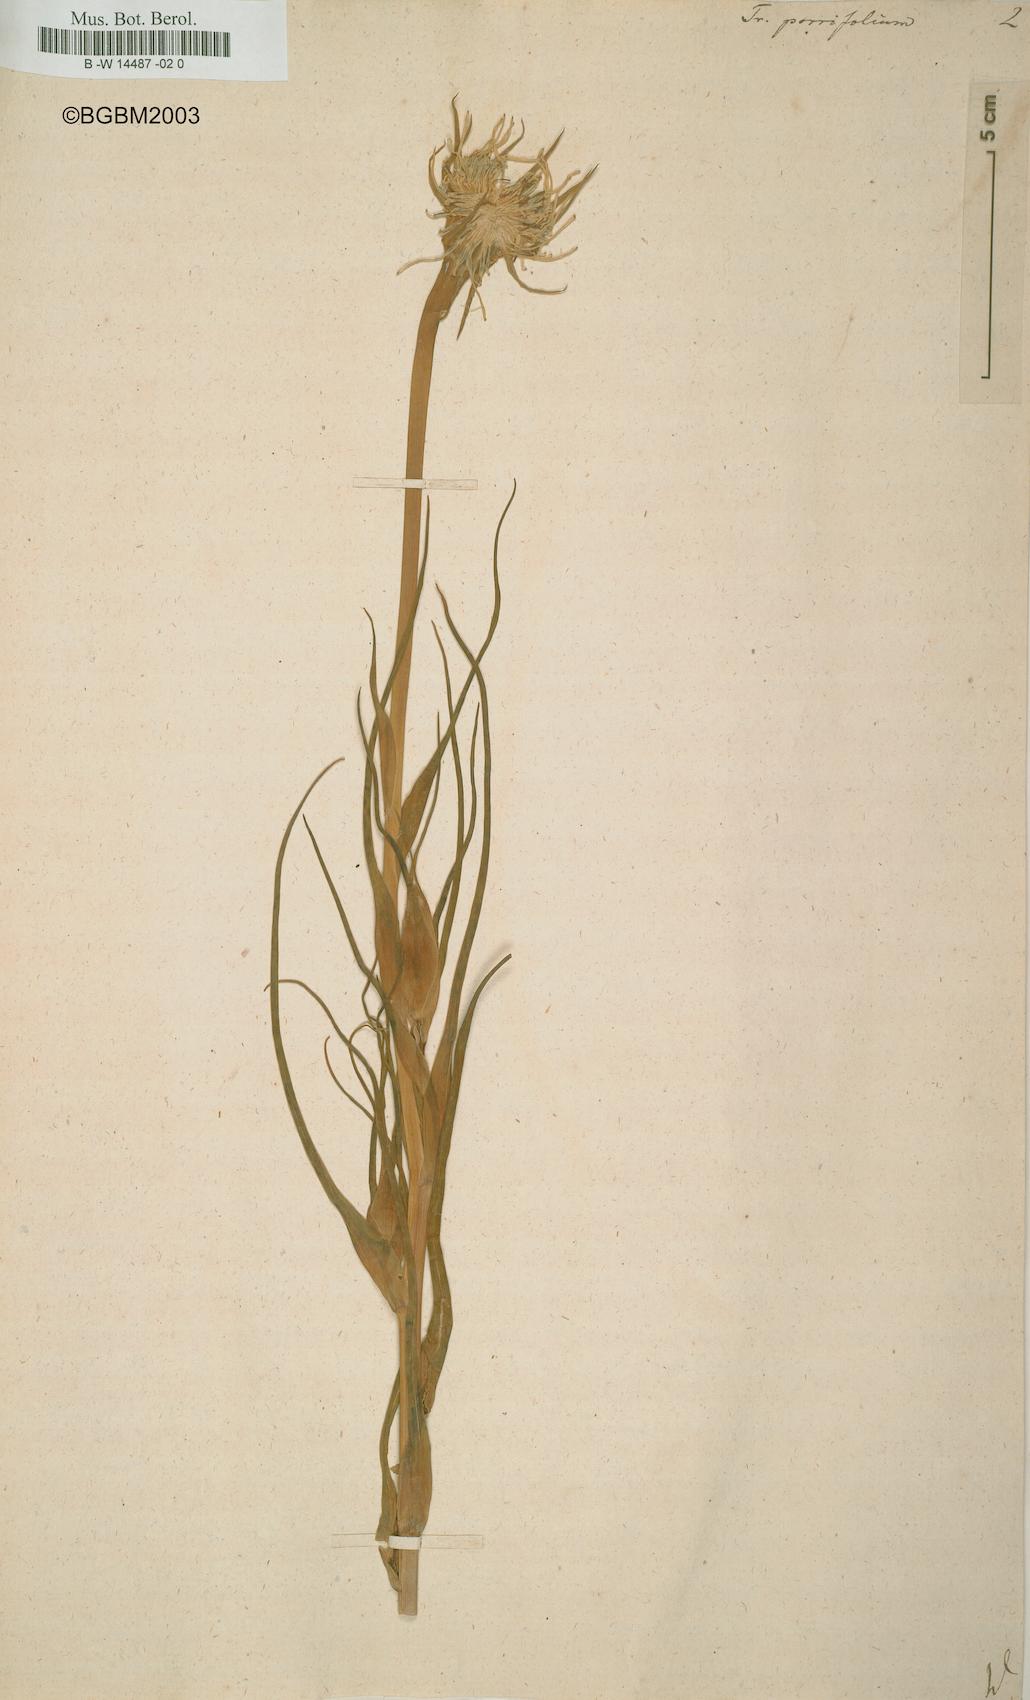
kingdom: Plantae
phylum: Tracheophyta
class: Magnoliopsida
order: Asterales
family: Asteraceae
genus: Tragopogon
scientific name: Tragopogon porrifolius
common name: Salsify
